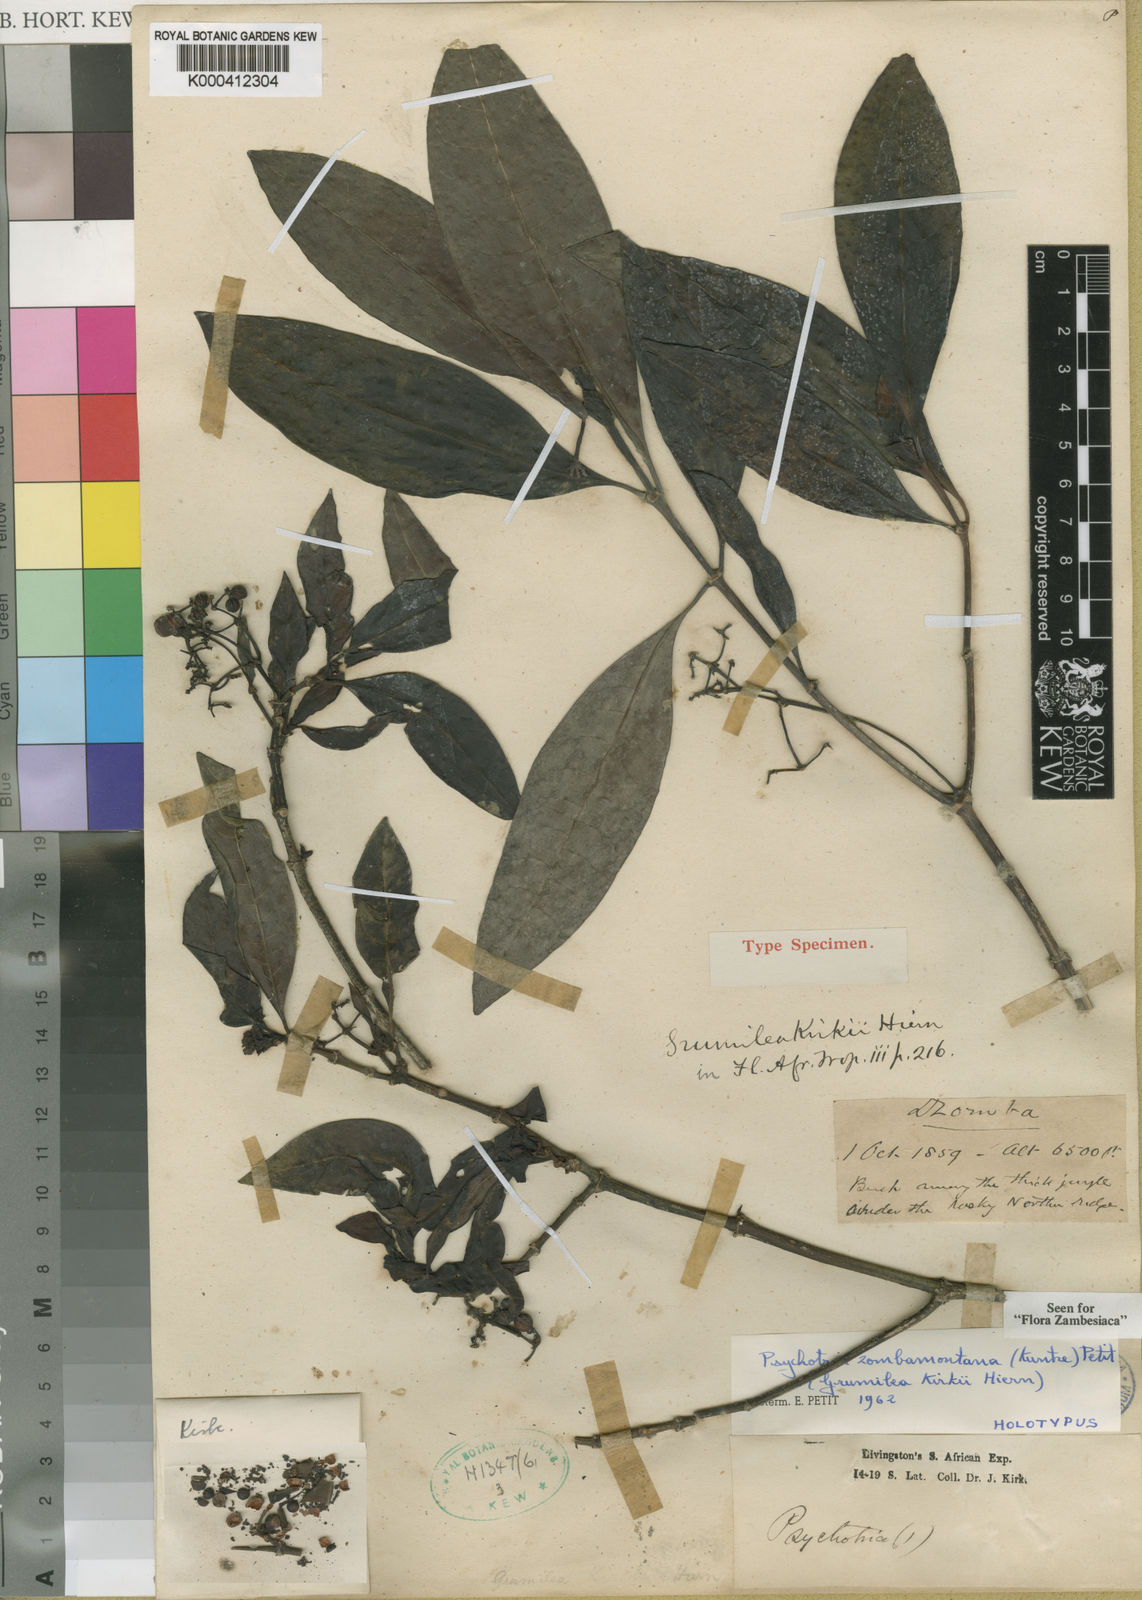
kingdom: Plantae
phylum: Tracheophyta
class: Magnoliopsida
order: Gentianales
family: Rubiaceae
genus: Psychotria
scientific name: Psychotria zombamontana
